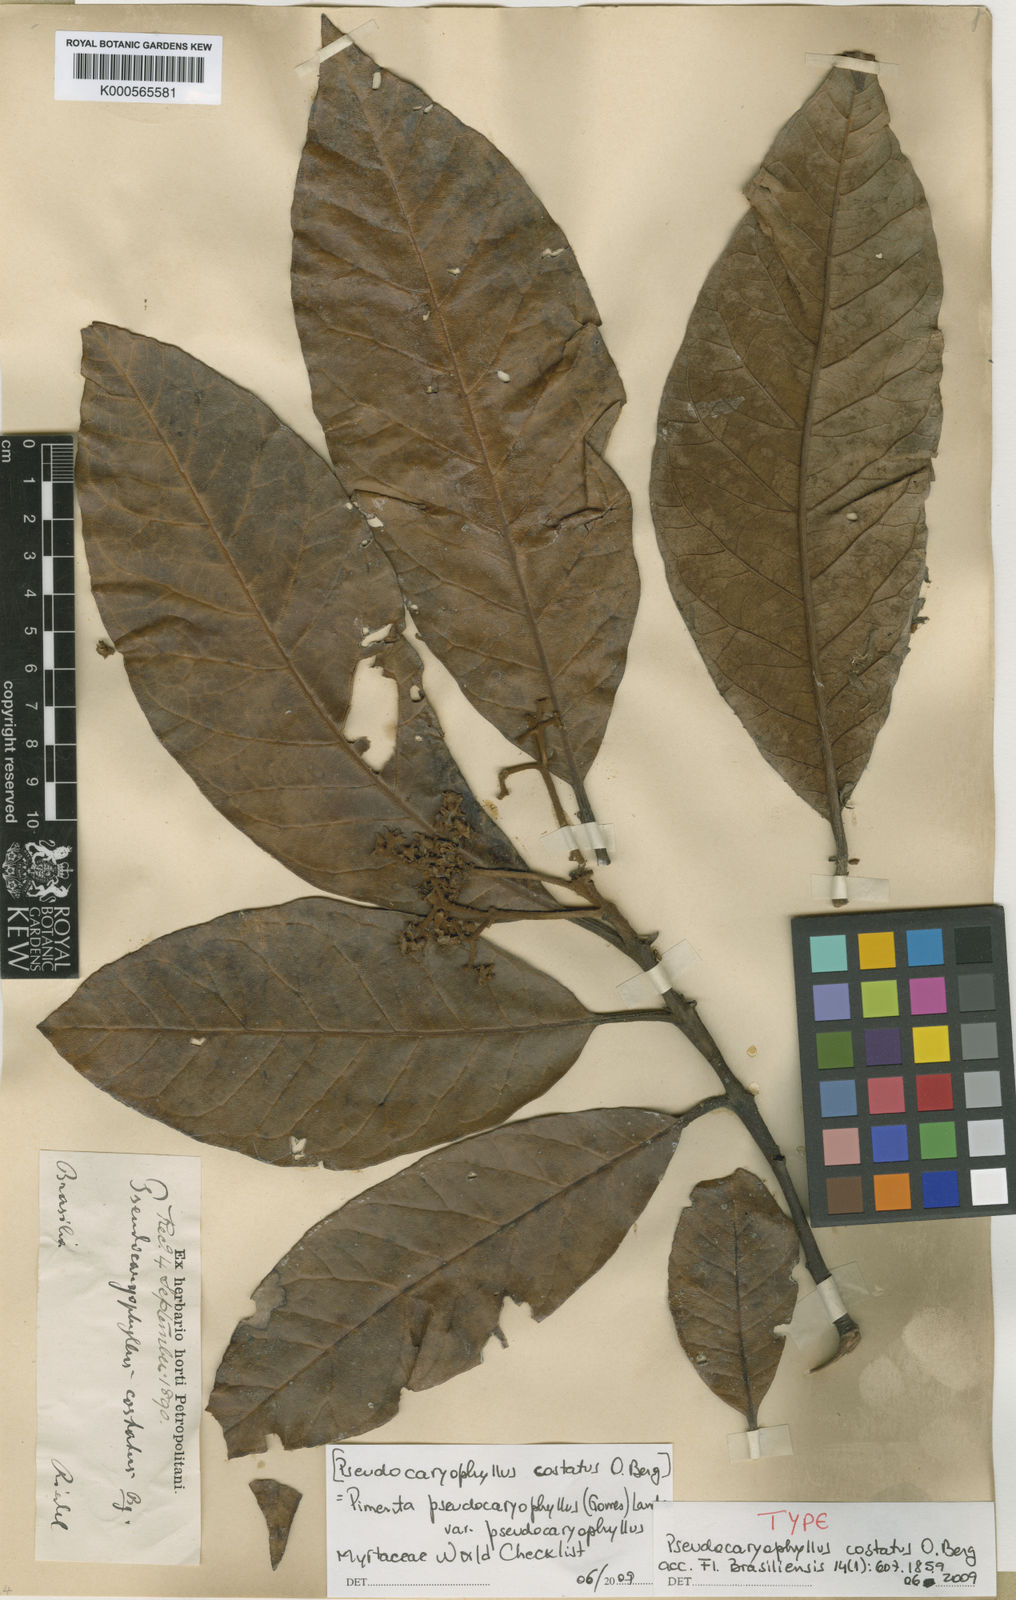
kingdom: Plantae
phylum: Tracheophyta
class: Magnoliopsida
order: Myrtales
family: Myrtaceae
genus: Pimenta
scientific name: Pimenta pseudocaryophyllus
